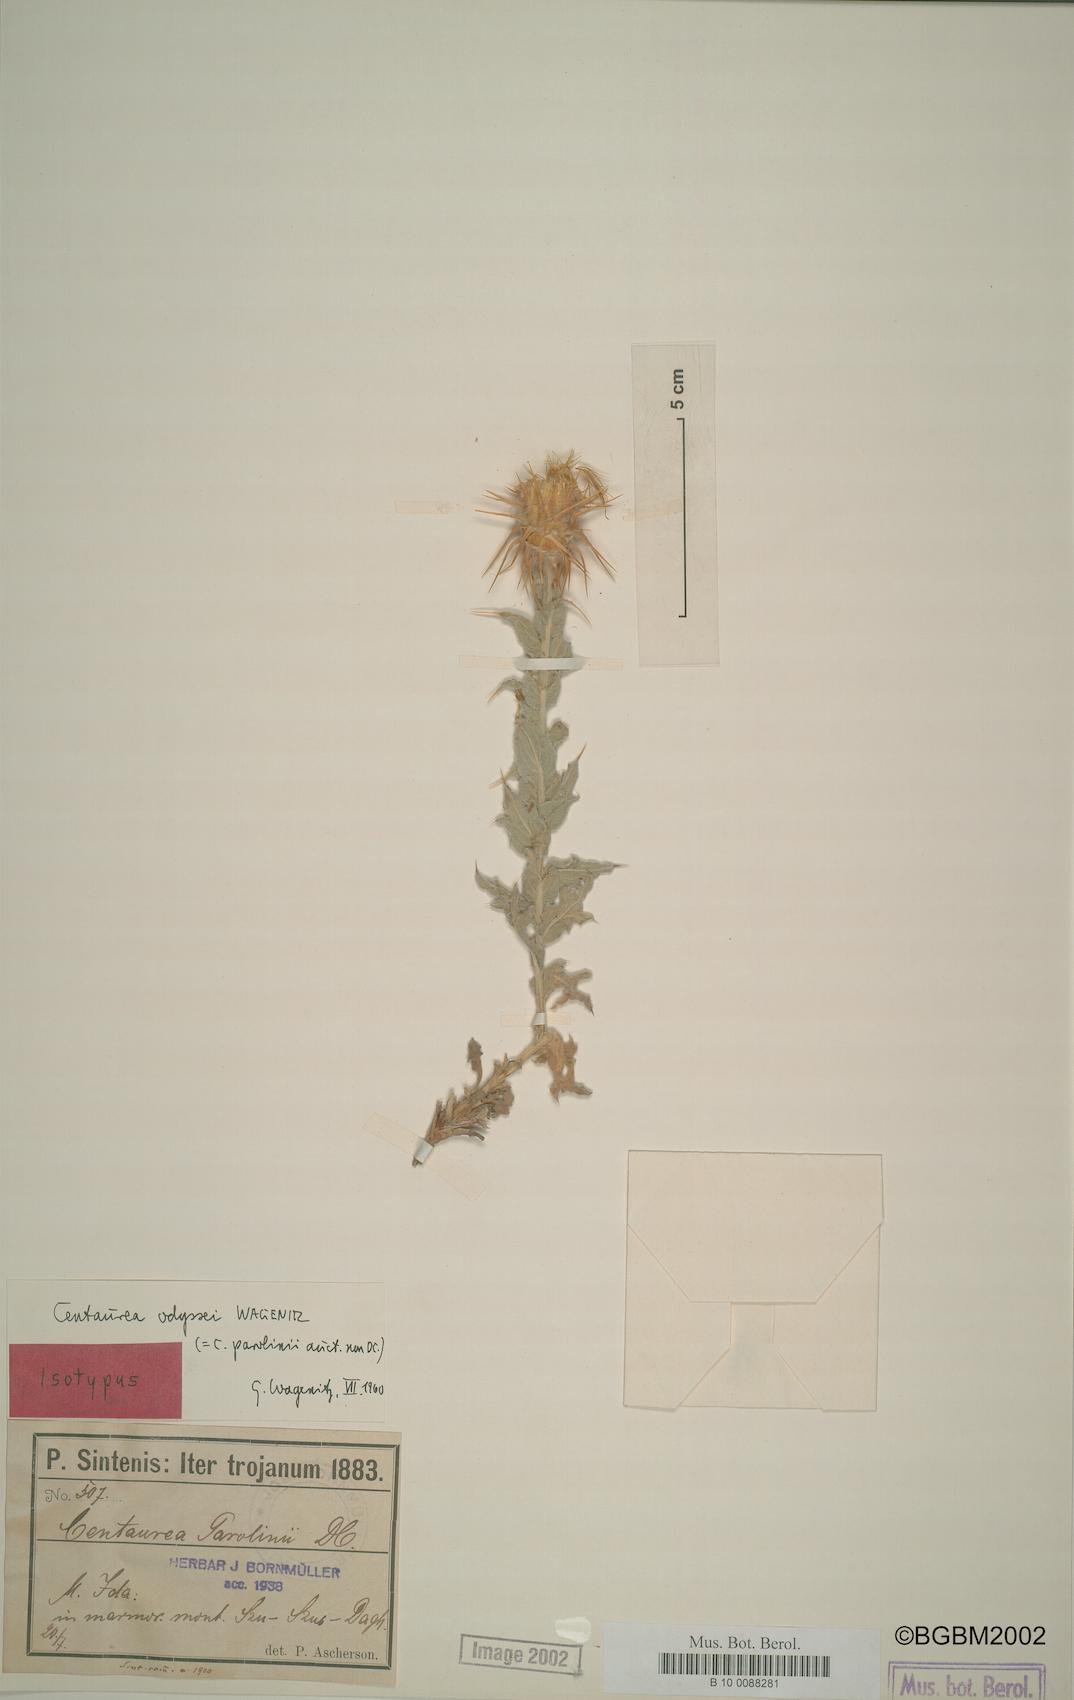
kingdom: Plantae
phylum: Tracheophyta
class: Magnoliopsida
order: Asterales
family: Asteraceae
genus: Centaurea
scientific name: Centaurea odyssei
